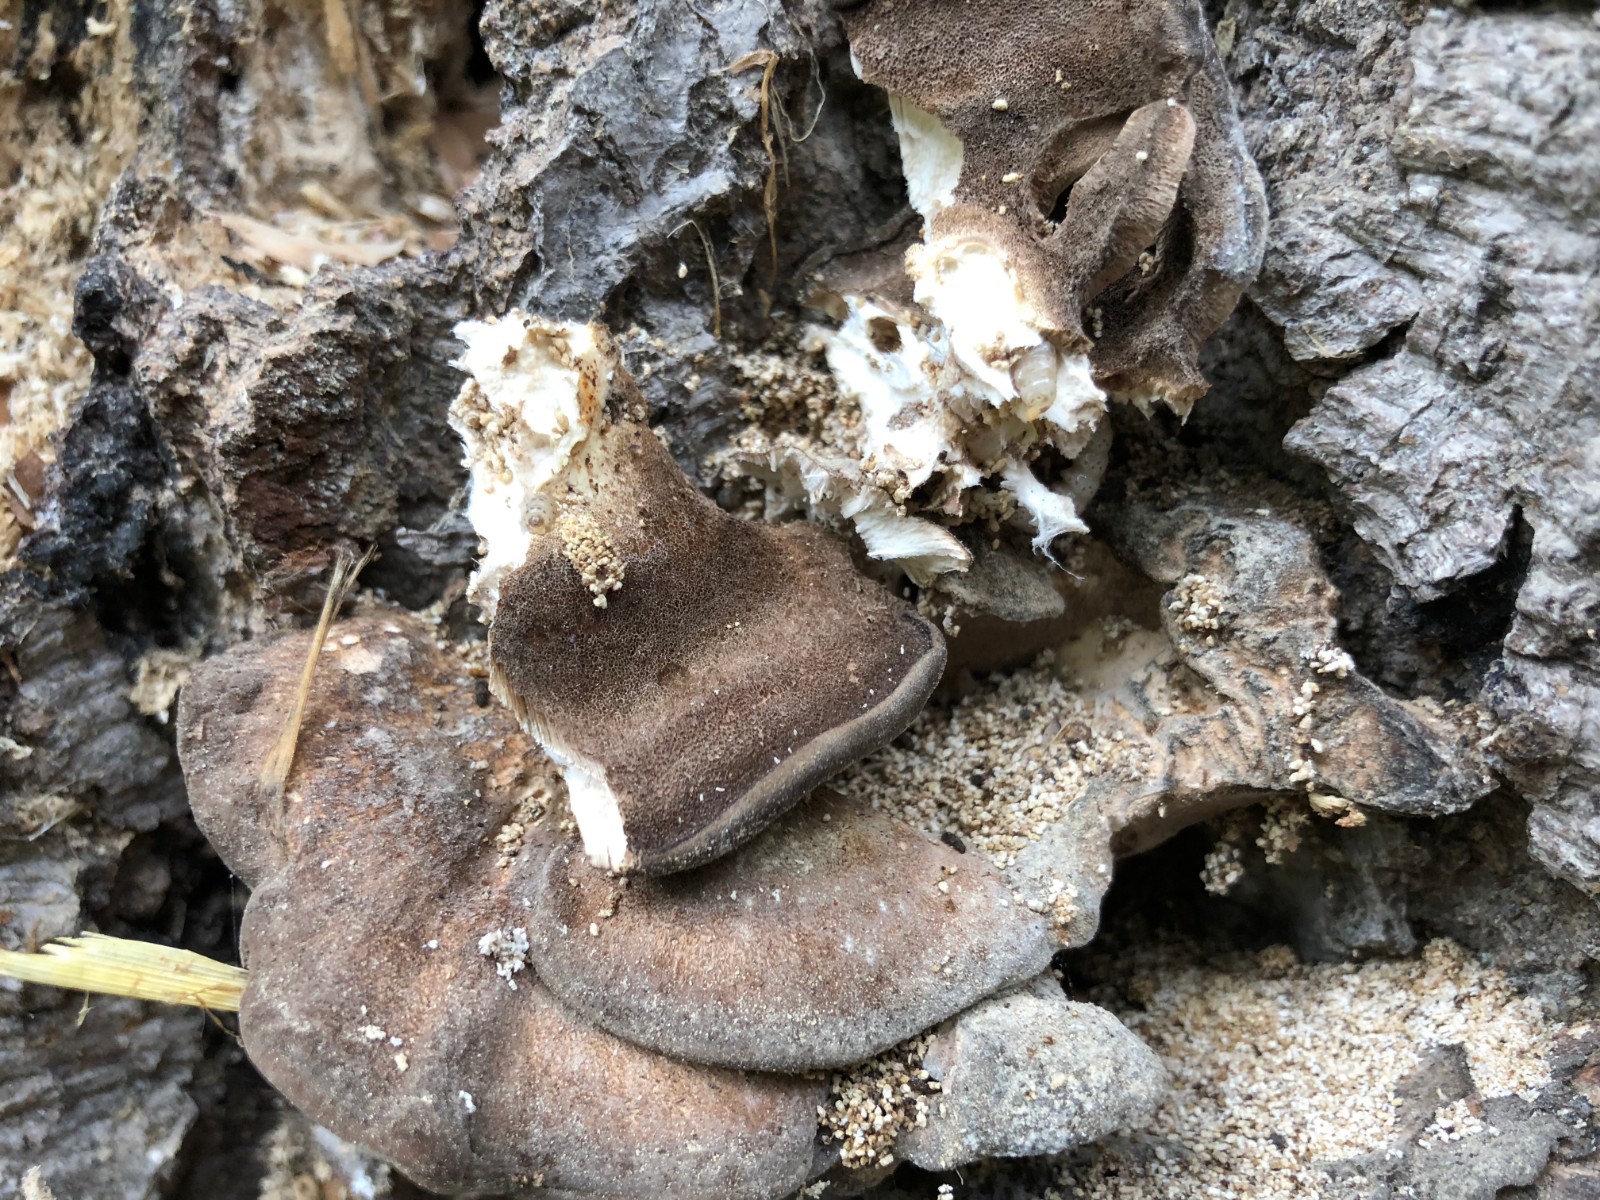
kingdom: Fungi
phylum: Basidiomycota
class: Agaricomycetes
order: Polyporales
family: Meripilaceae
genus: Meripilus
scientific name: Meripilus giganteus
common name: kæmpeporesvamp
